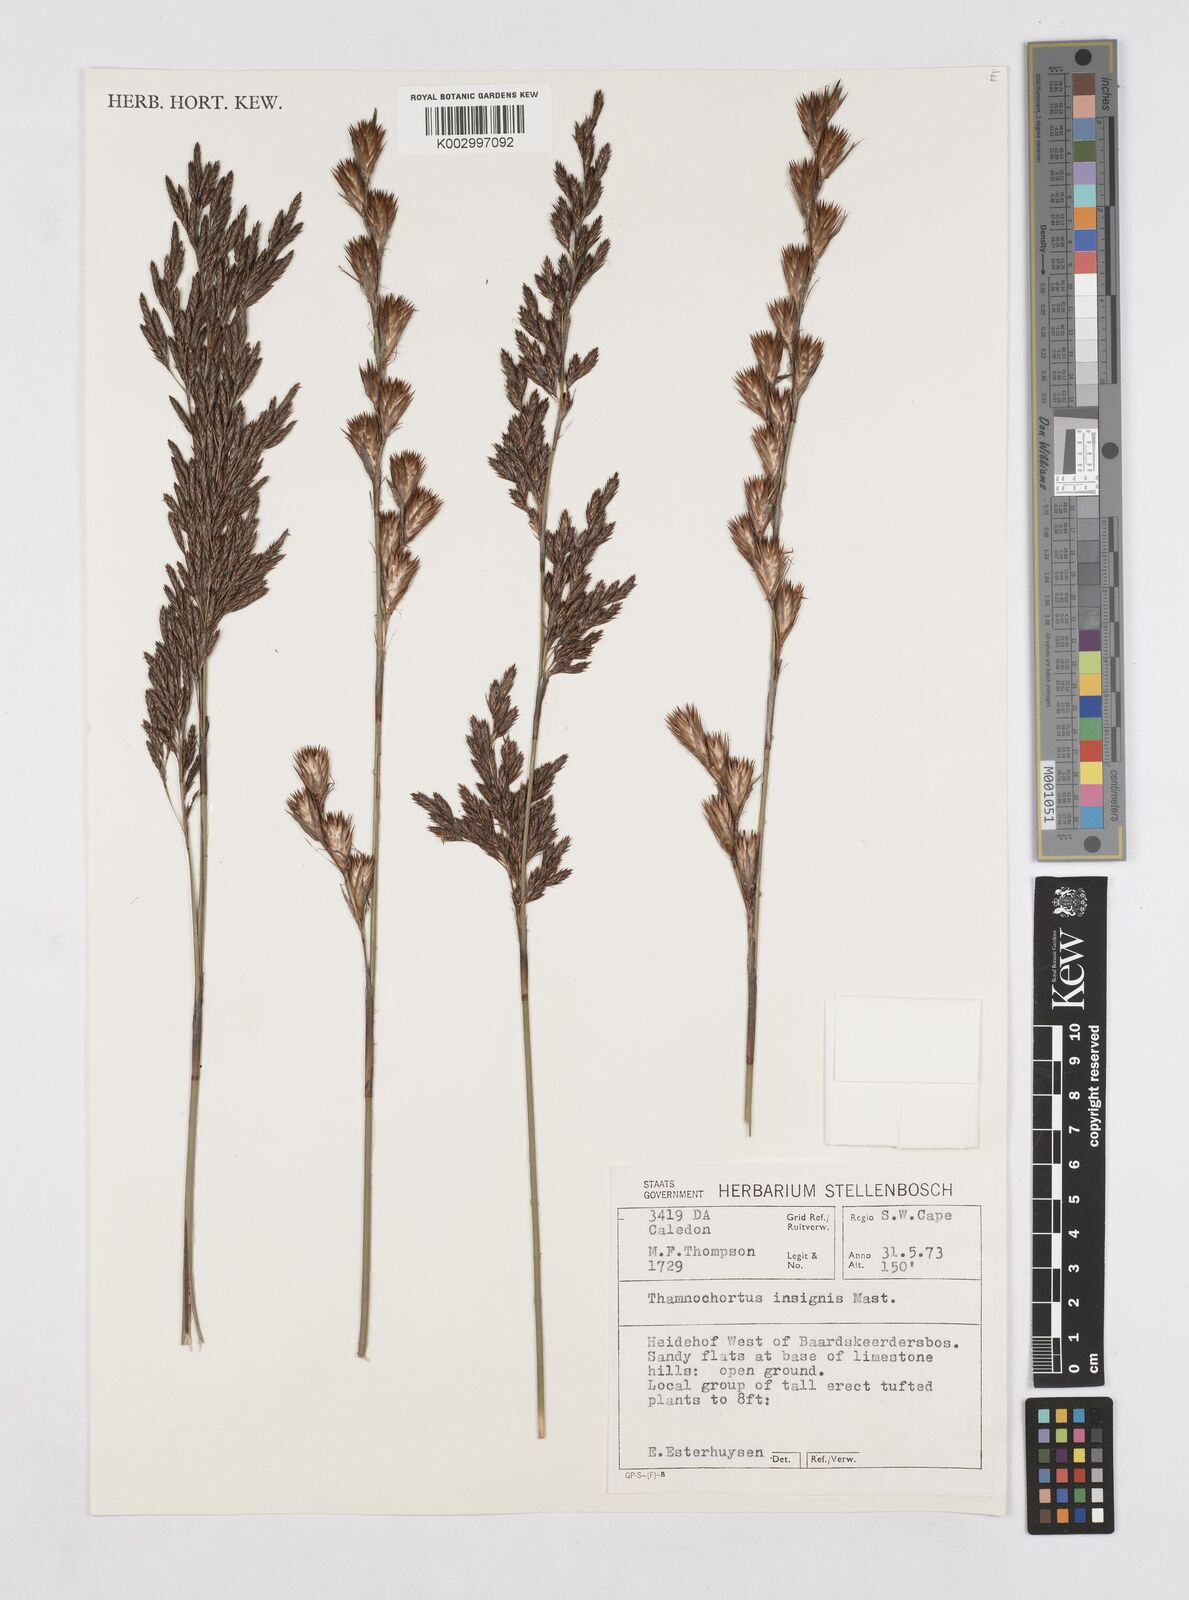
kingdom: Plantae
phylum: Tracheophyta
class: Liliopsida
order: Poales
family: Restionaceae
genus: Thamnochortus
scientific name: Thamnochortus insignis
